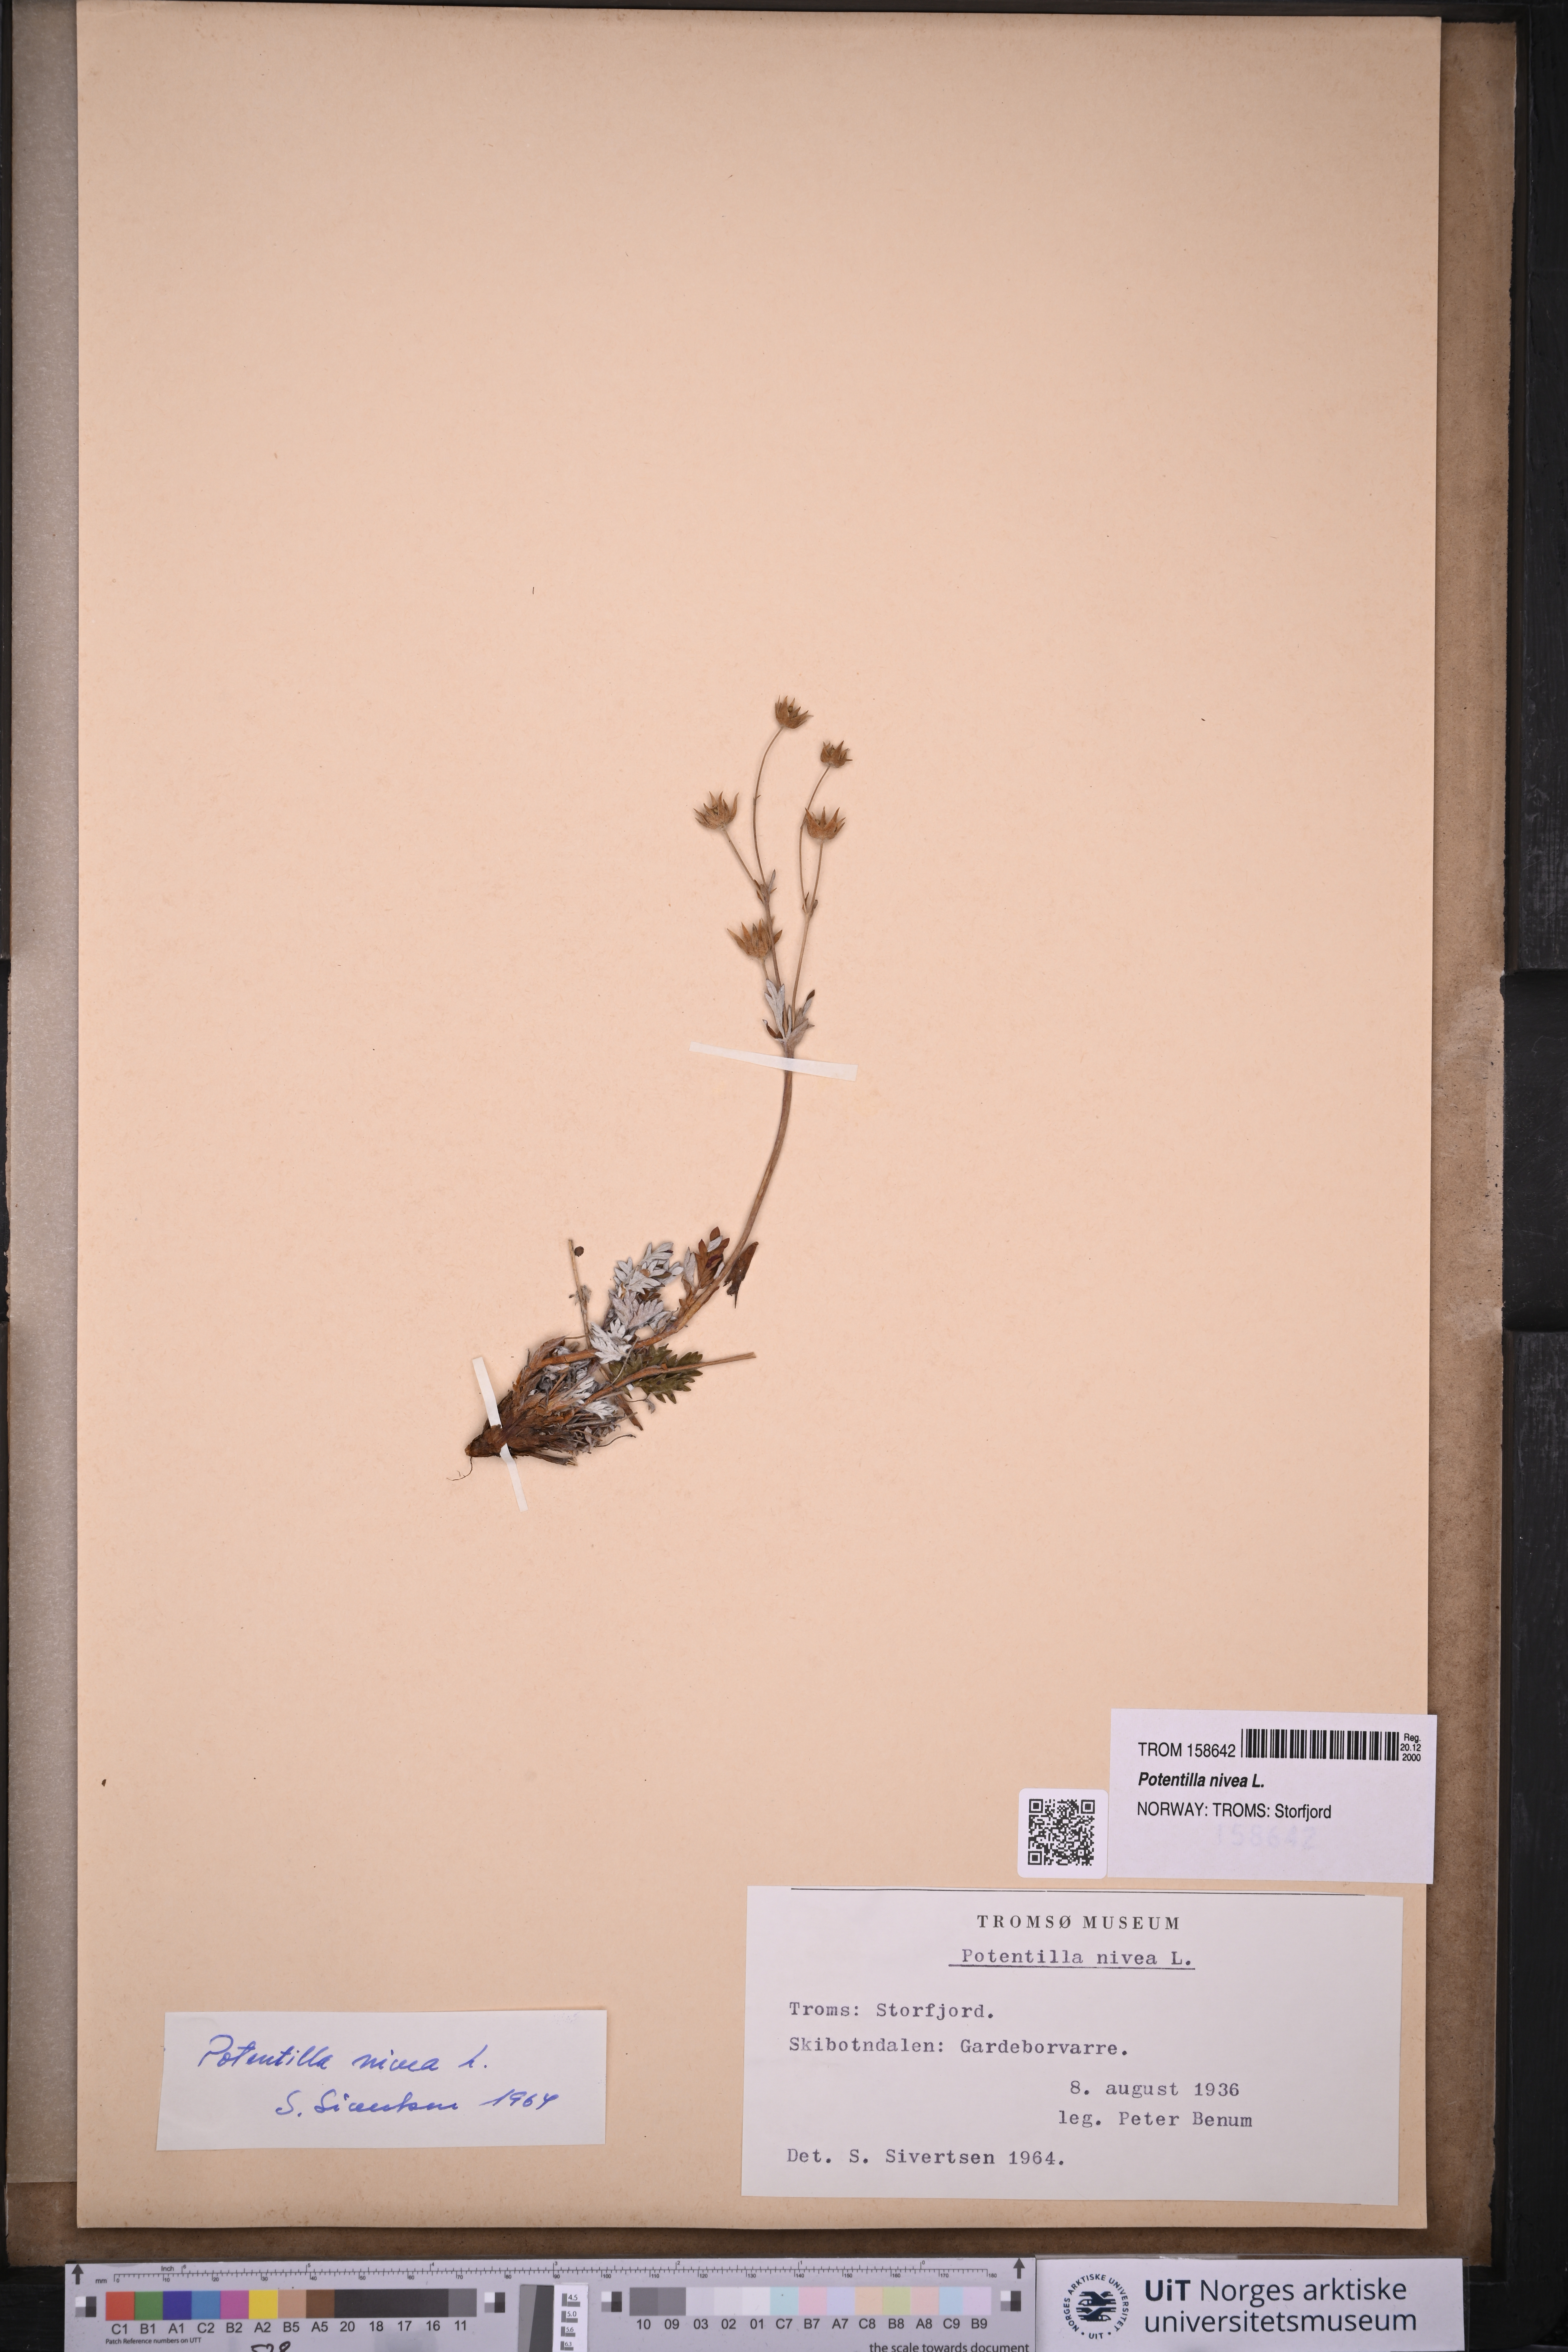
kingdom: Plantae
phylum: Tracheophyta
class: Magnoliopsida
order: Rosales
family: Rosaceae
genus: Potentilla
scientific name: Potentilla arenosa
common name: Bluff cinquefoil
